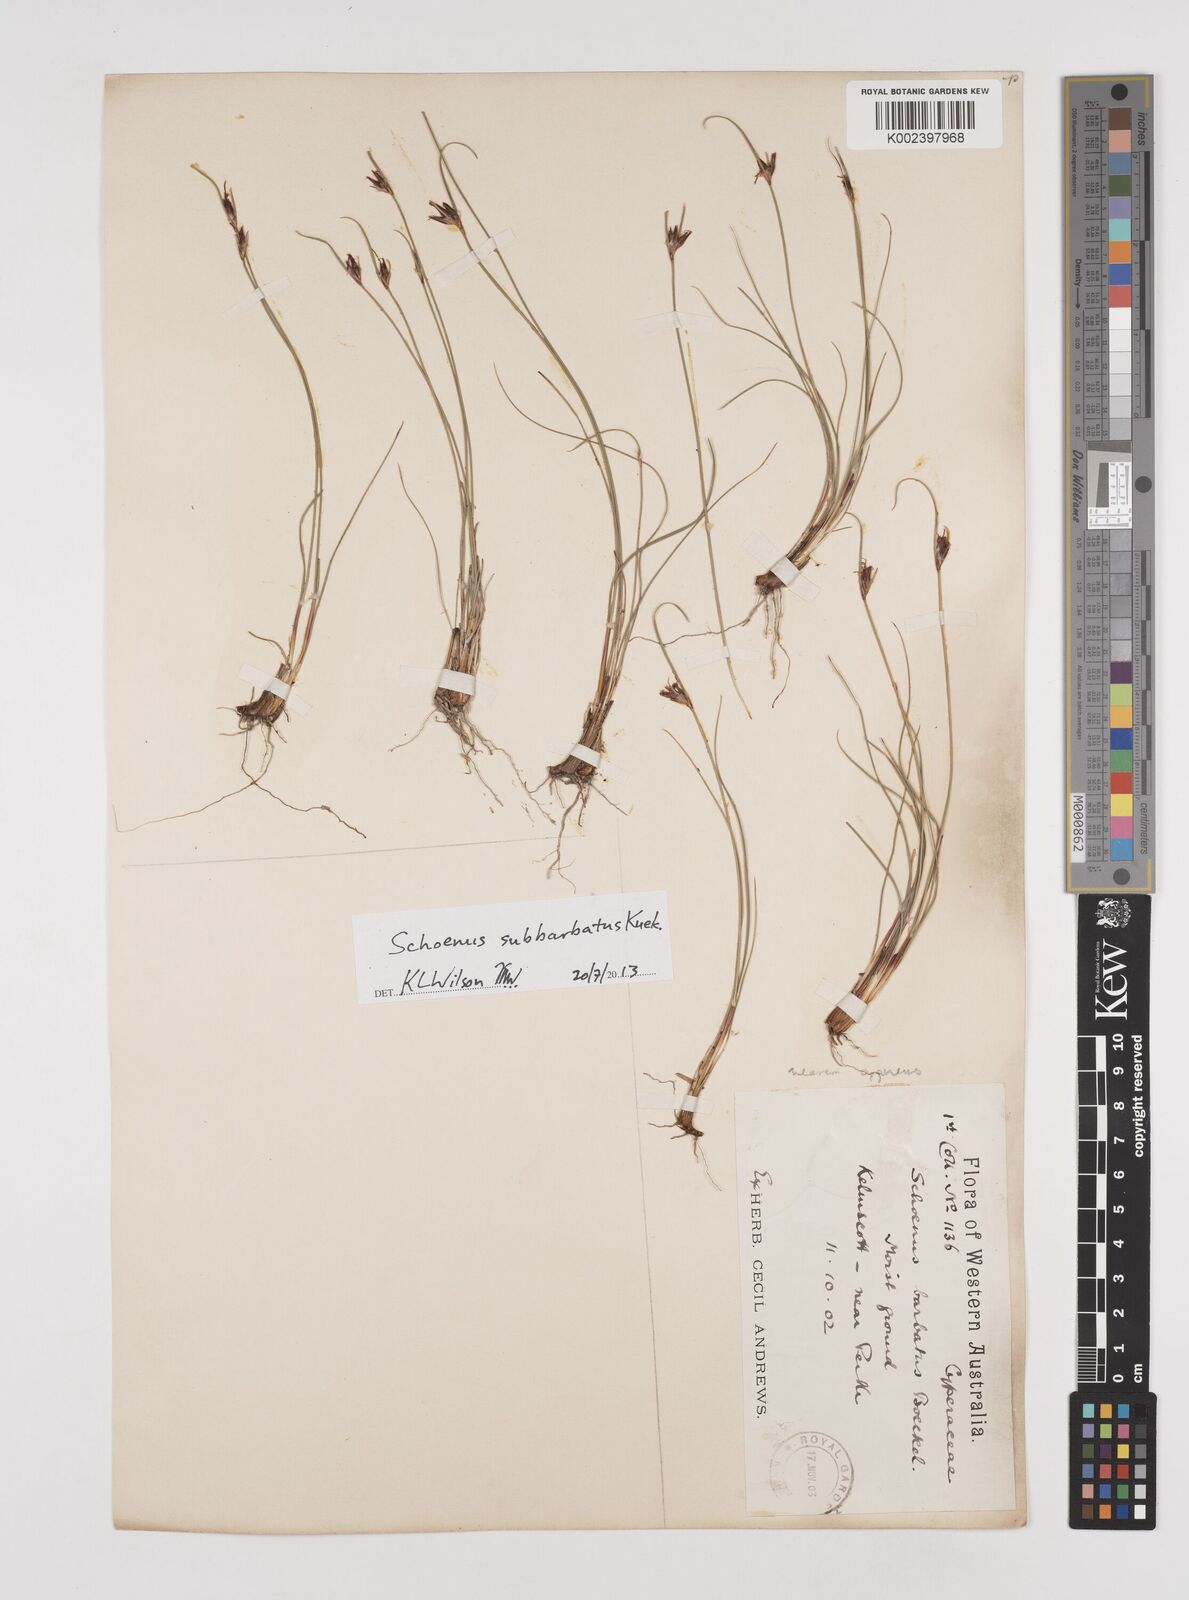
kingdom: Plantae
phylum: Tracheophyta
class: Liliopsida
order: Poales
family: Cyperaceae
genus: Schoenus
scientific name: Schoenus subflavus
